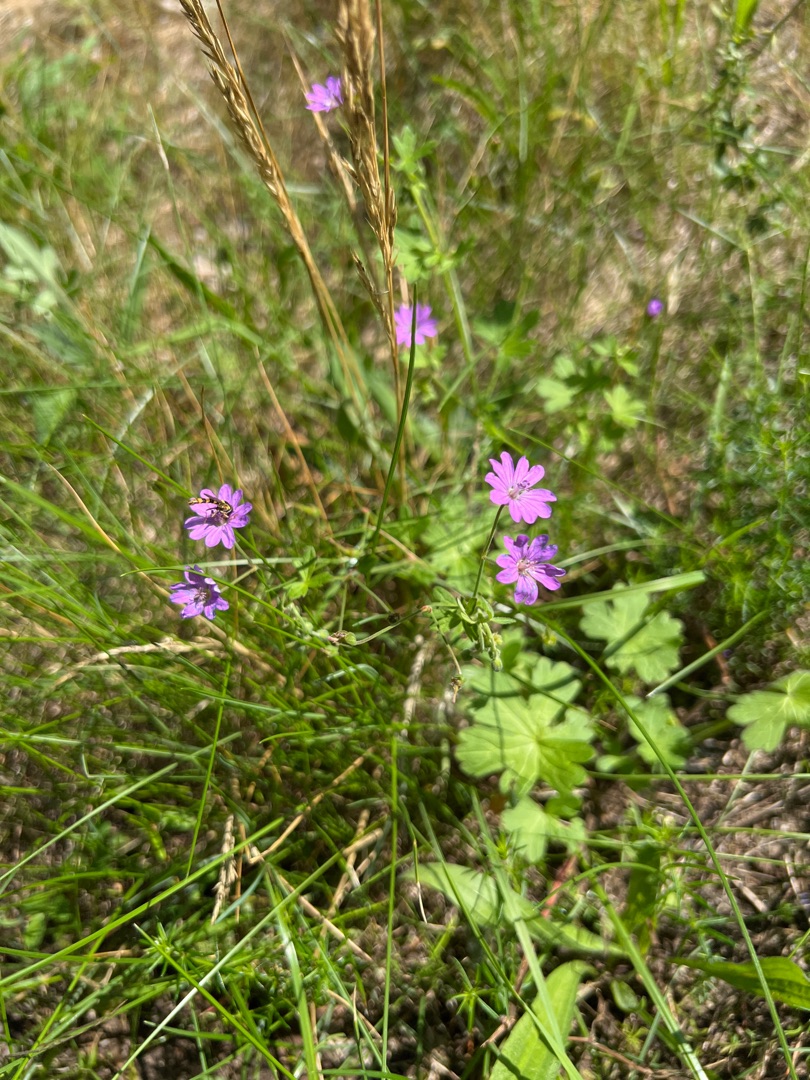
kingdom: Plantae
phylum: Tracheophyta
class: Magnoliopsida
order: Geraniales
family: Geraniaceae
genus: Geranium
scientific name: Geranium pyrenaicum
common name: Pyrenæisk storkenæb
